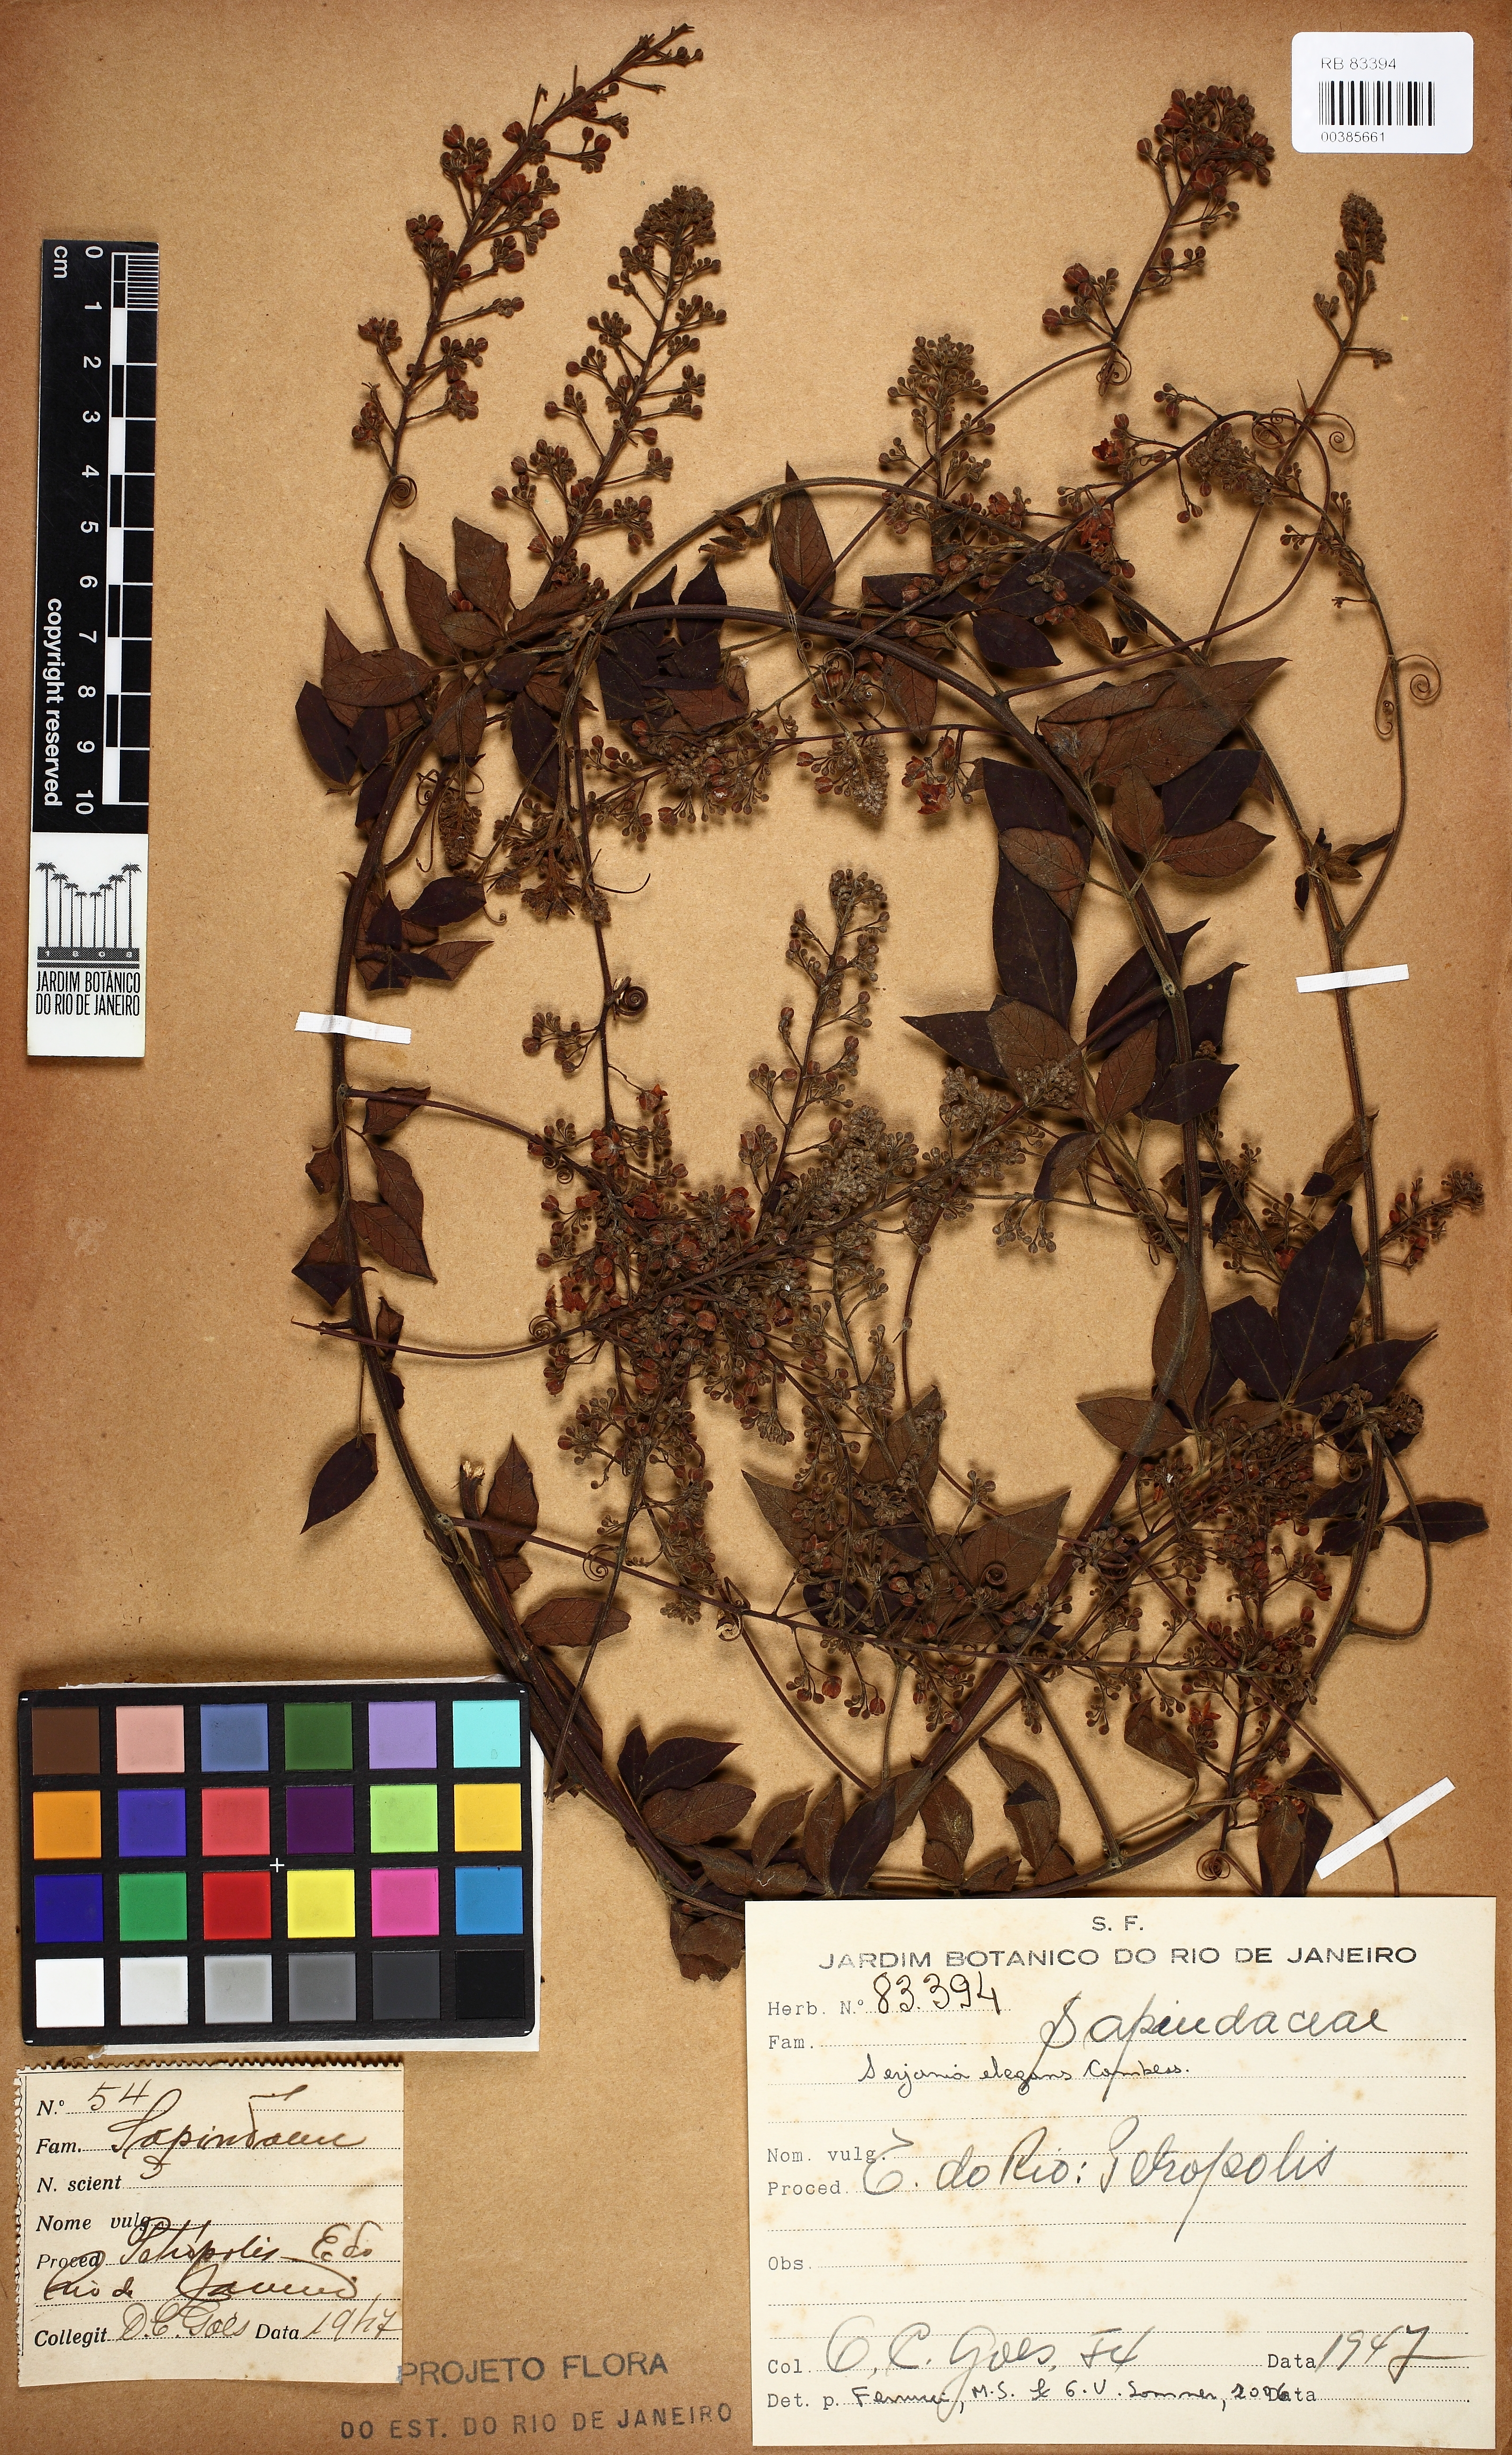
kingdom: Plantae
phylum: Tracheophyta
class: Magnoliopsida
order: Sapindales
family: Sapindaceae
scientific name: Sapindaceae
